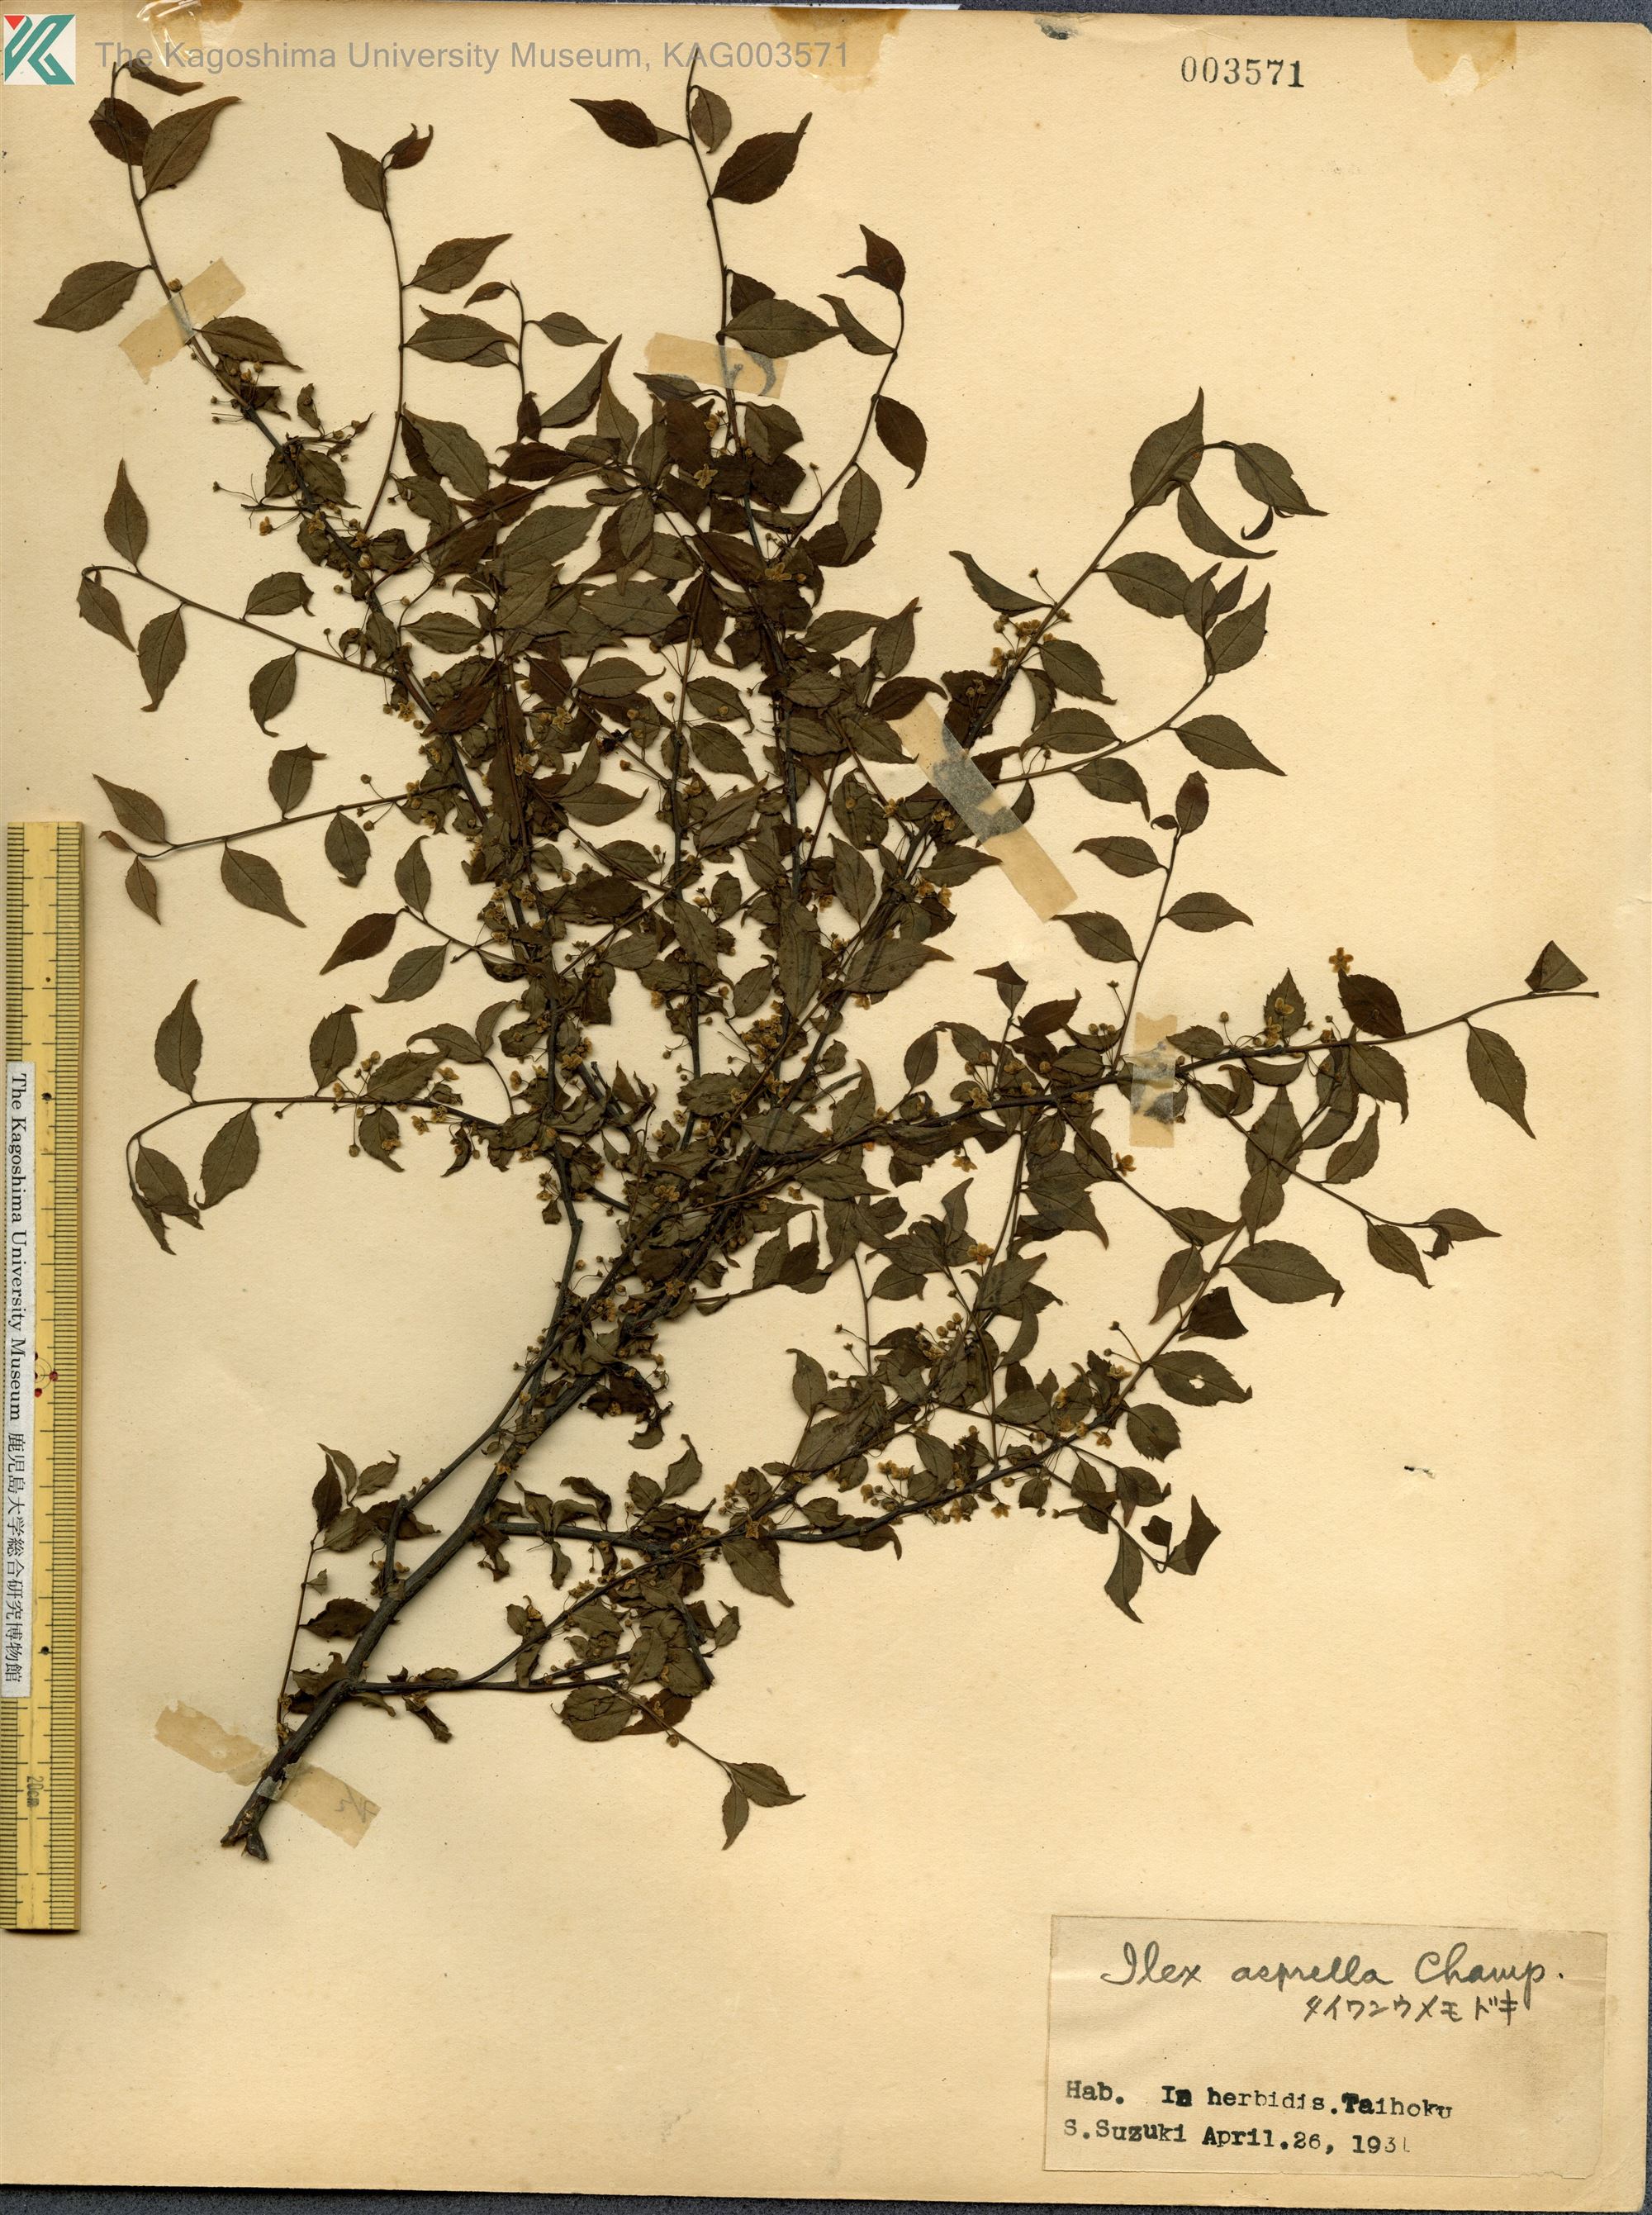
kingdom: Plantae
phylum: Tracheophyta
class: Magnoliopsida
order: Aquifoliales
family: Aquifoliaceae
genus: Ilex
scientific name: Ilex asprella
